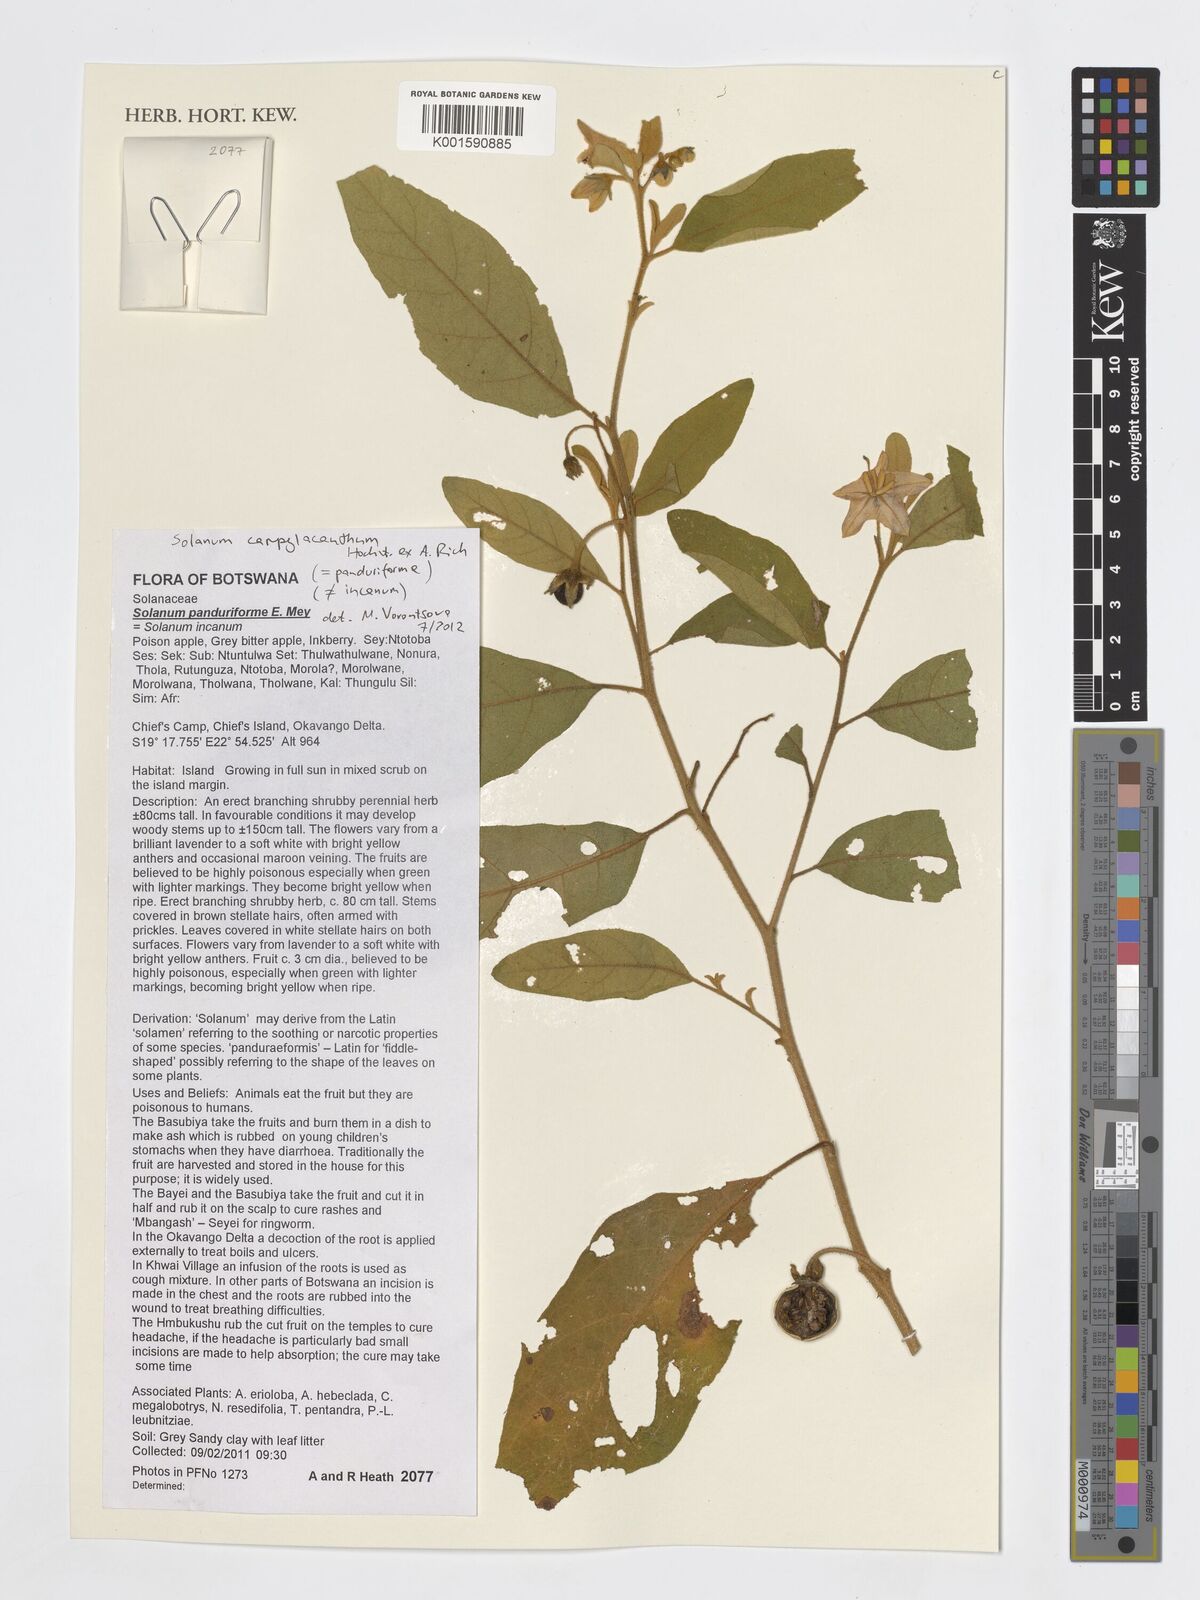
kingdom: Plantae
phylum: Tracheophyta
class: Magnoliopsida
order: Solanales
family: Solanaceae
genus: Solanum
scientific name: Solanum campylacanthum
